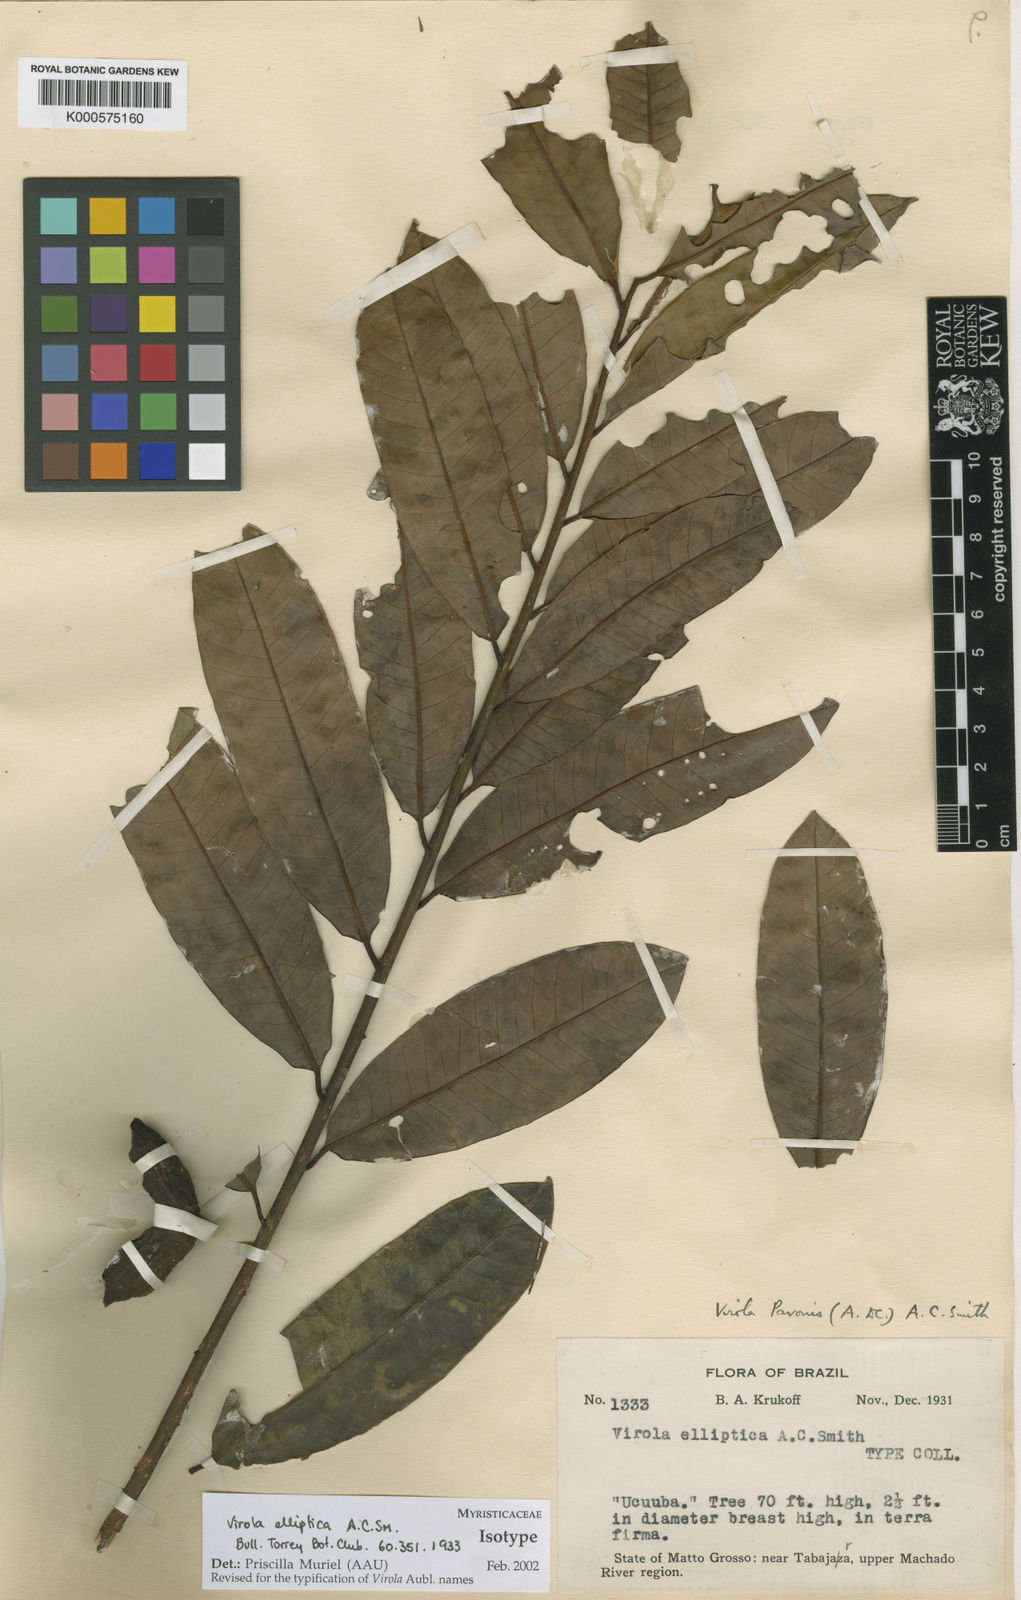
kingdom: Plantae
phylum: Tracheophyta
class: Magnoliopsida
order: Magnoliales
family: Myristicaceae
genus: Virola
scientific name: Virola pavonis
